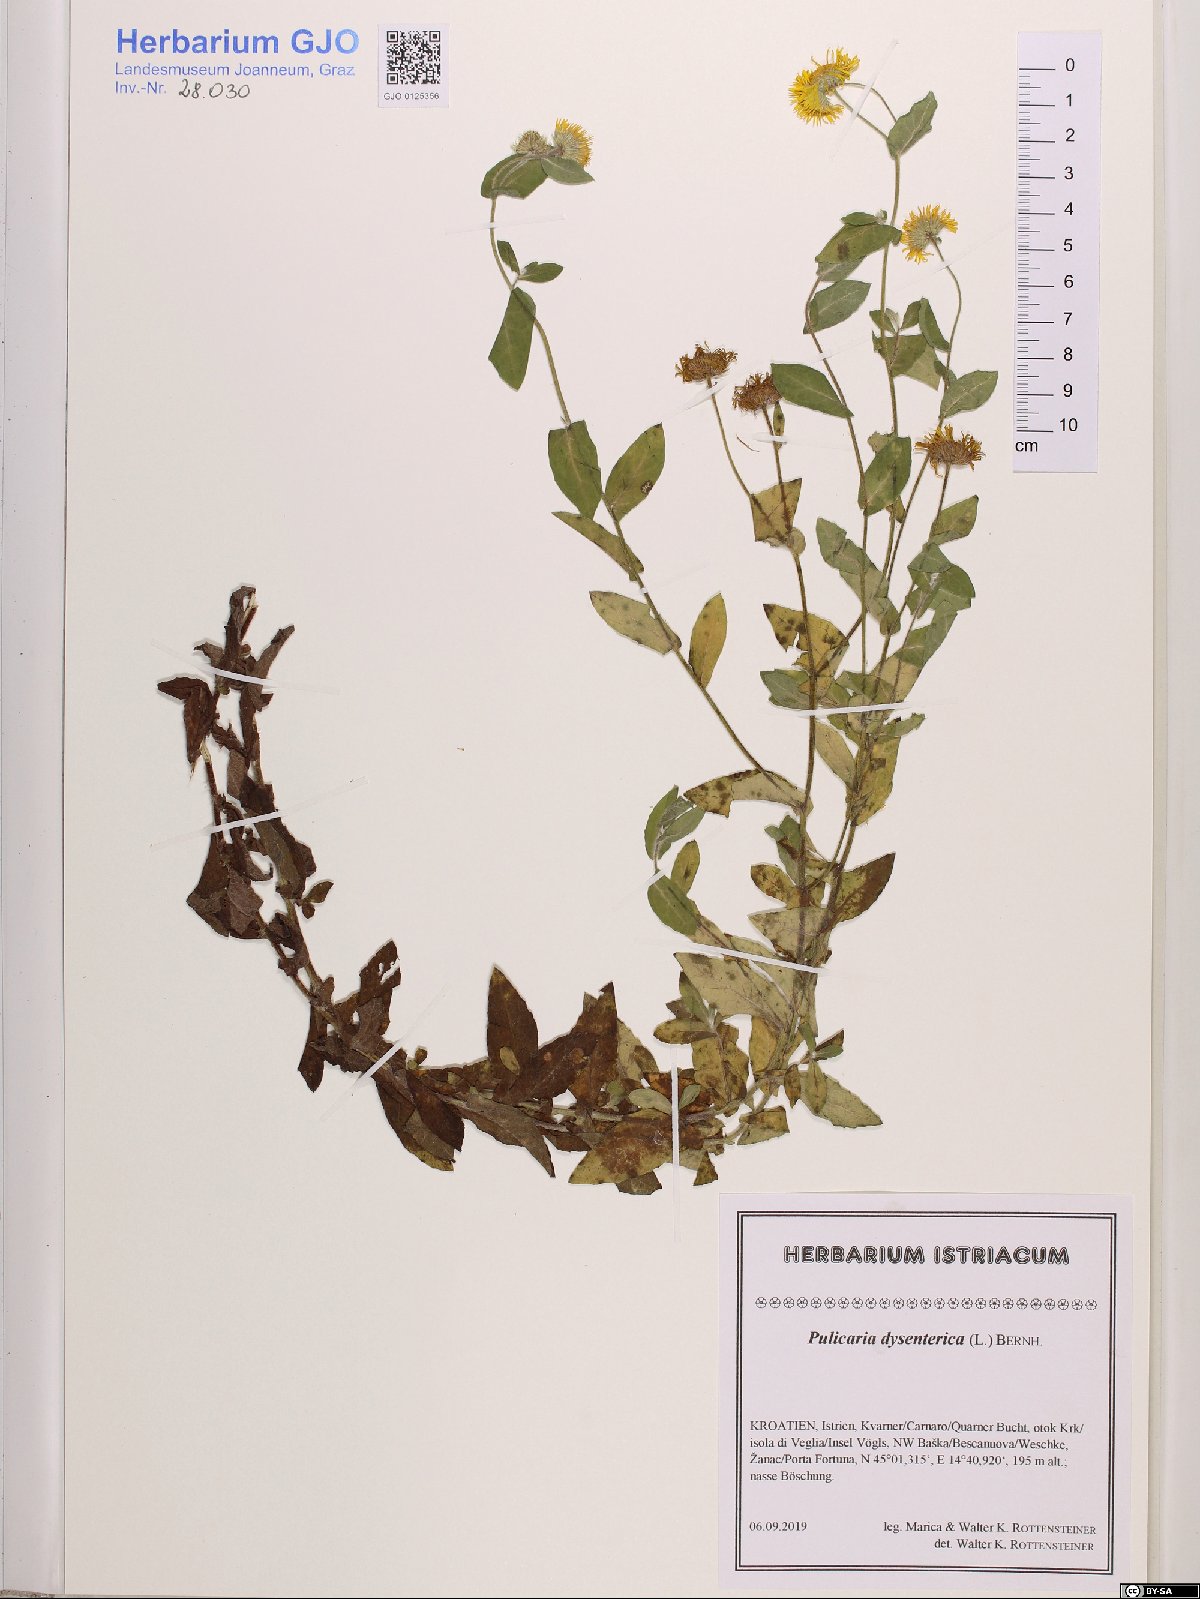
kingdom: Plantae
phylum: Tracheophyta
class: Magnoliopsida
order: Asterales
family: Asteraceae
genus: Pulicaria
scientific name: Pulicaria dysenterica
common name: Common fleabane
